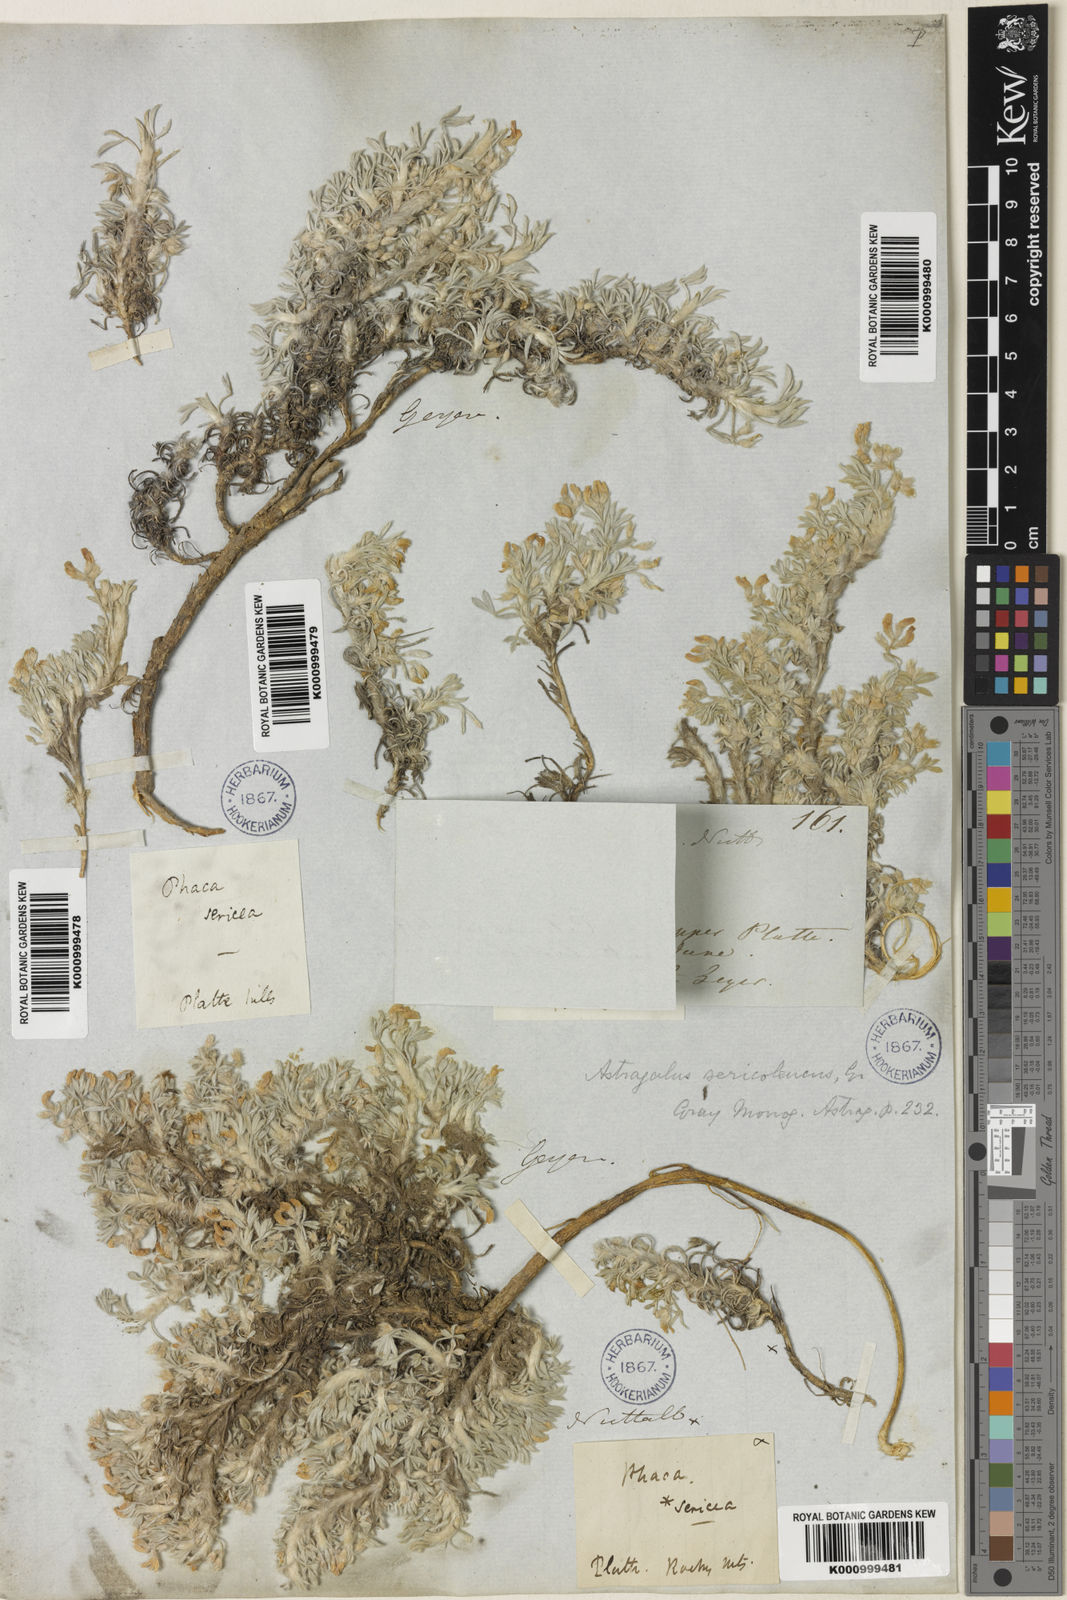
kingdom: Plantae
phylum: Tracheophyta
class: Magnoliopsida
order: Fabales
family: Fabaceae
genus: Astragalus
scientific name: Astragalus sericoleucus
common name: Silky orophaca
